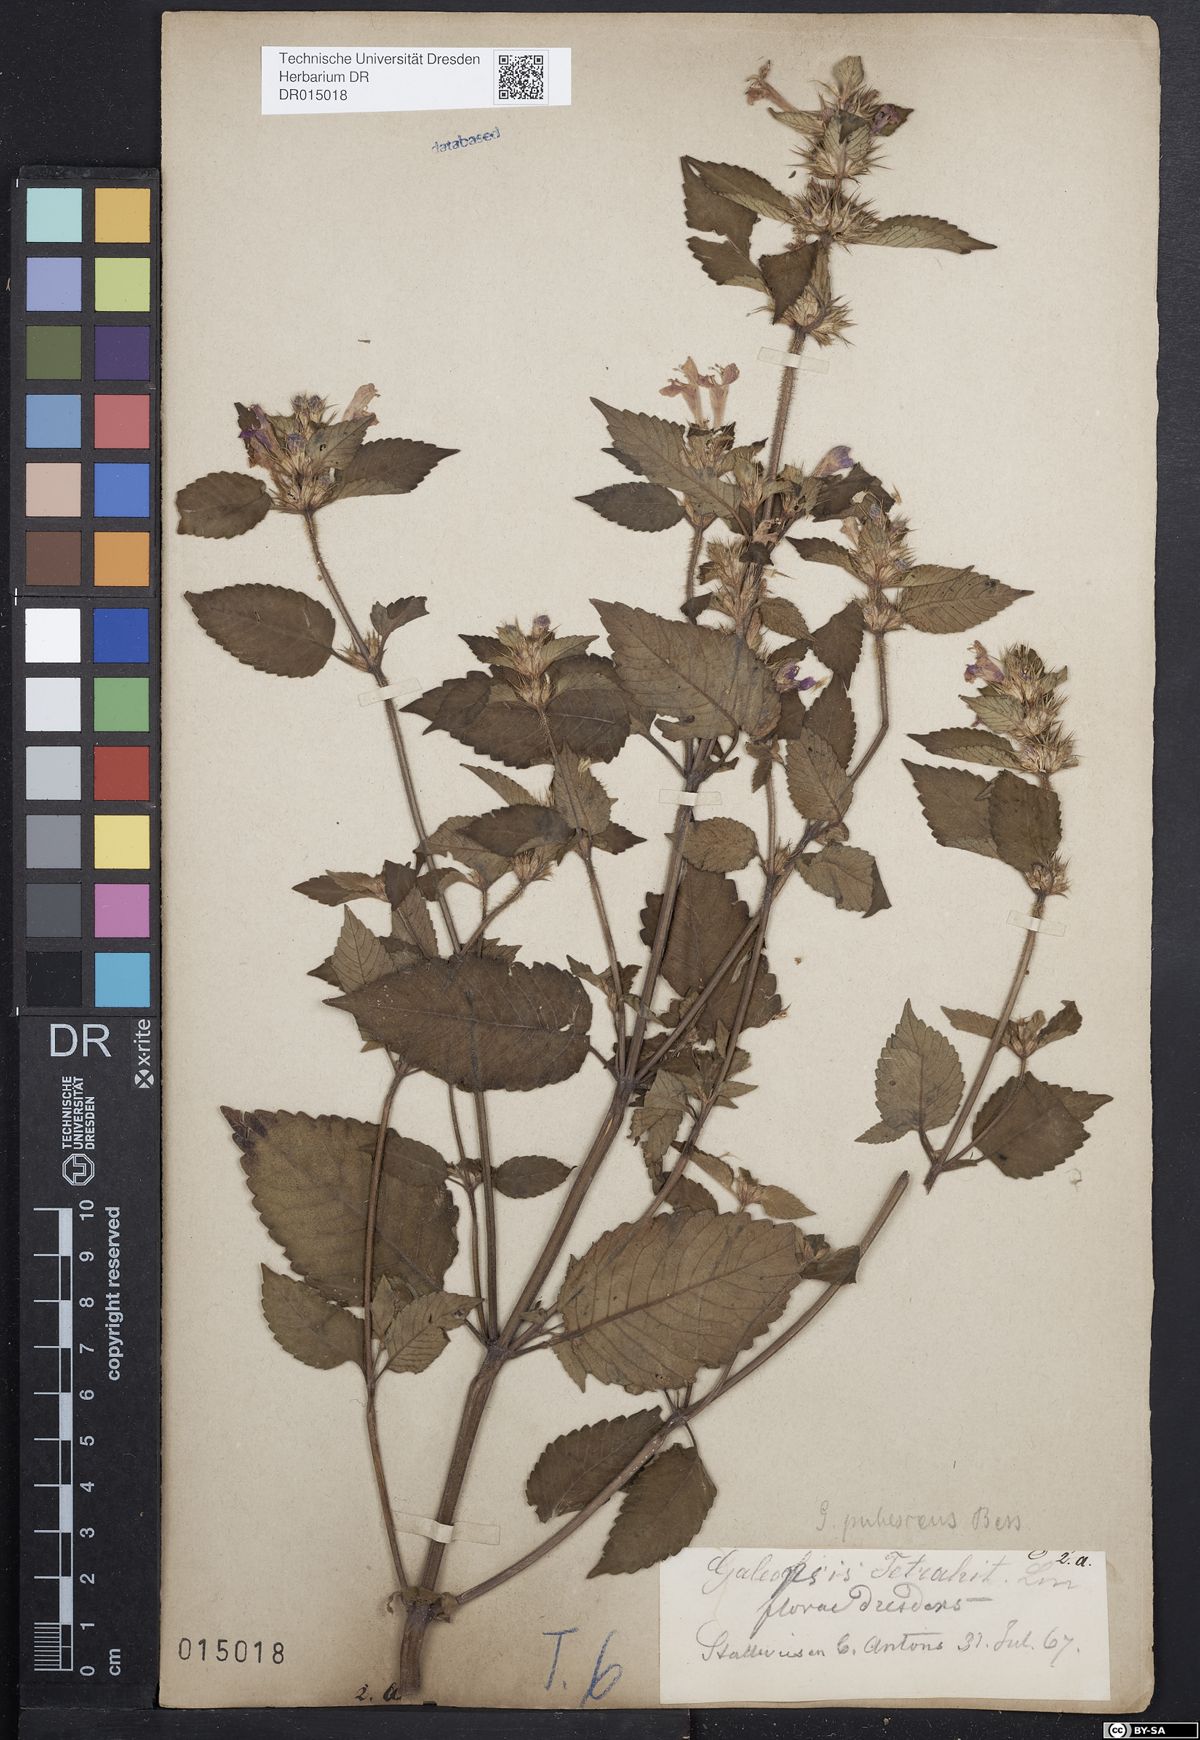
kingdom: Plantae
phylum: Tracheophyta
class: Magnoliopsida
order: Lamiales
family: Lamiaceae
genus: Galeopsis
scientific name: Galeopsis pubescens
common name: Downy hemp-nettle
